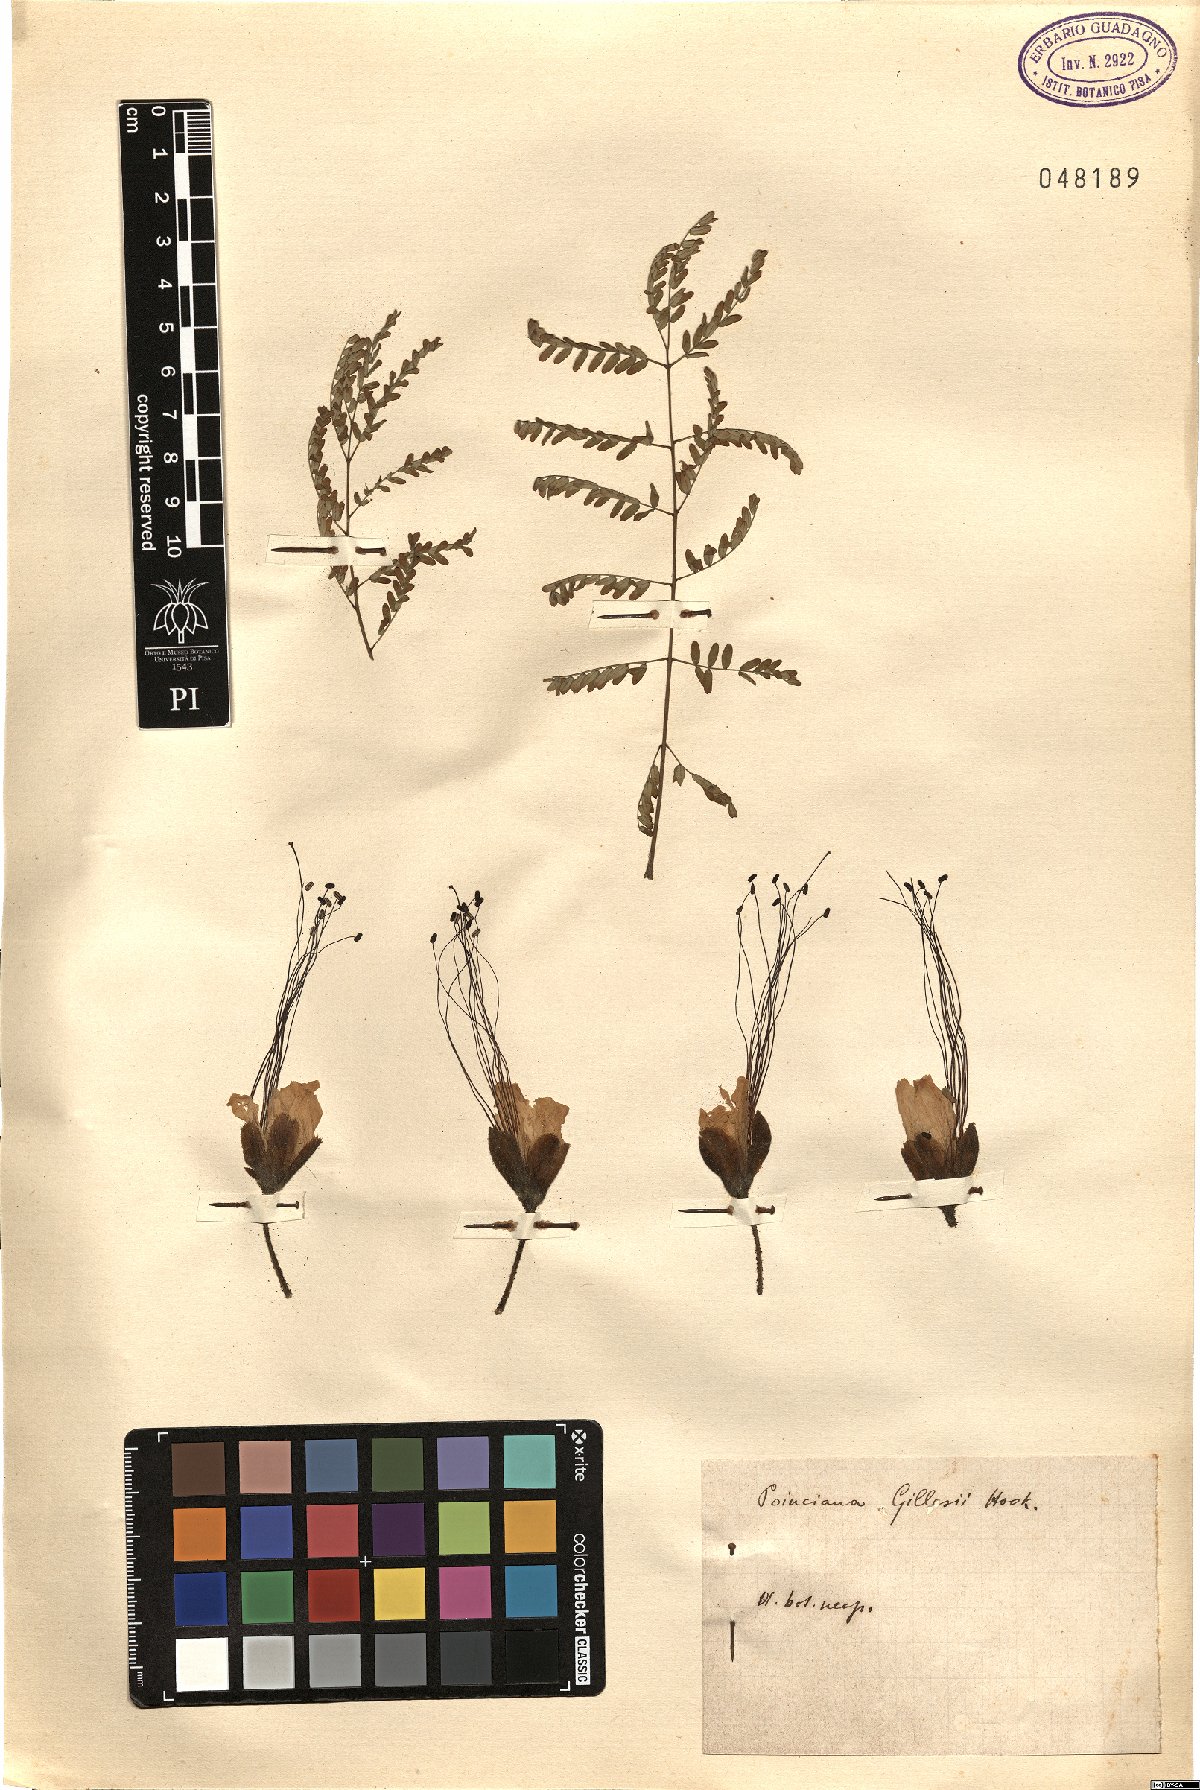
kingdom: Plantae
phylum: Tracheophyta
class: Magnoliopsida
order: Fabales
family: Fabaceae
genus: Erythrostemon
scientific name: Erythrostemon gilliesii
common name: Bird-of-paradise shrub
